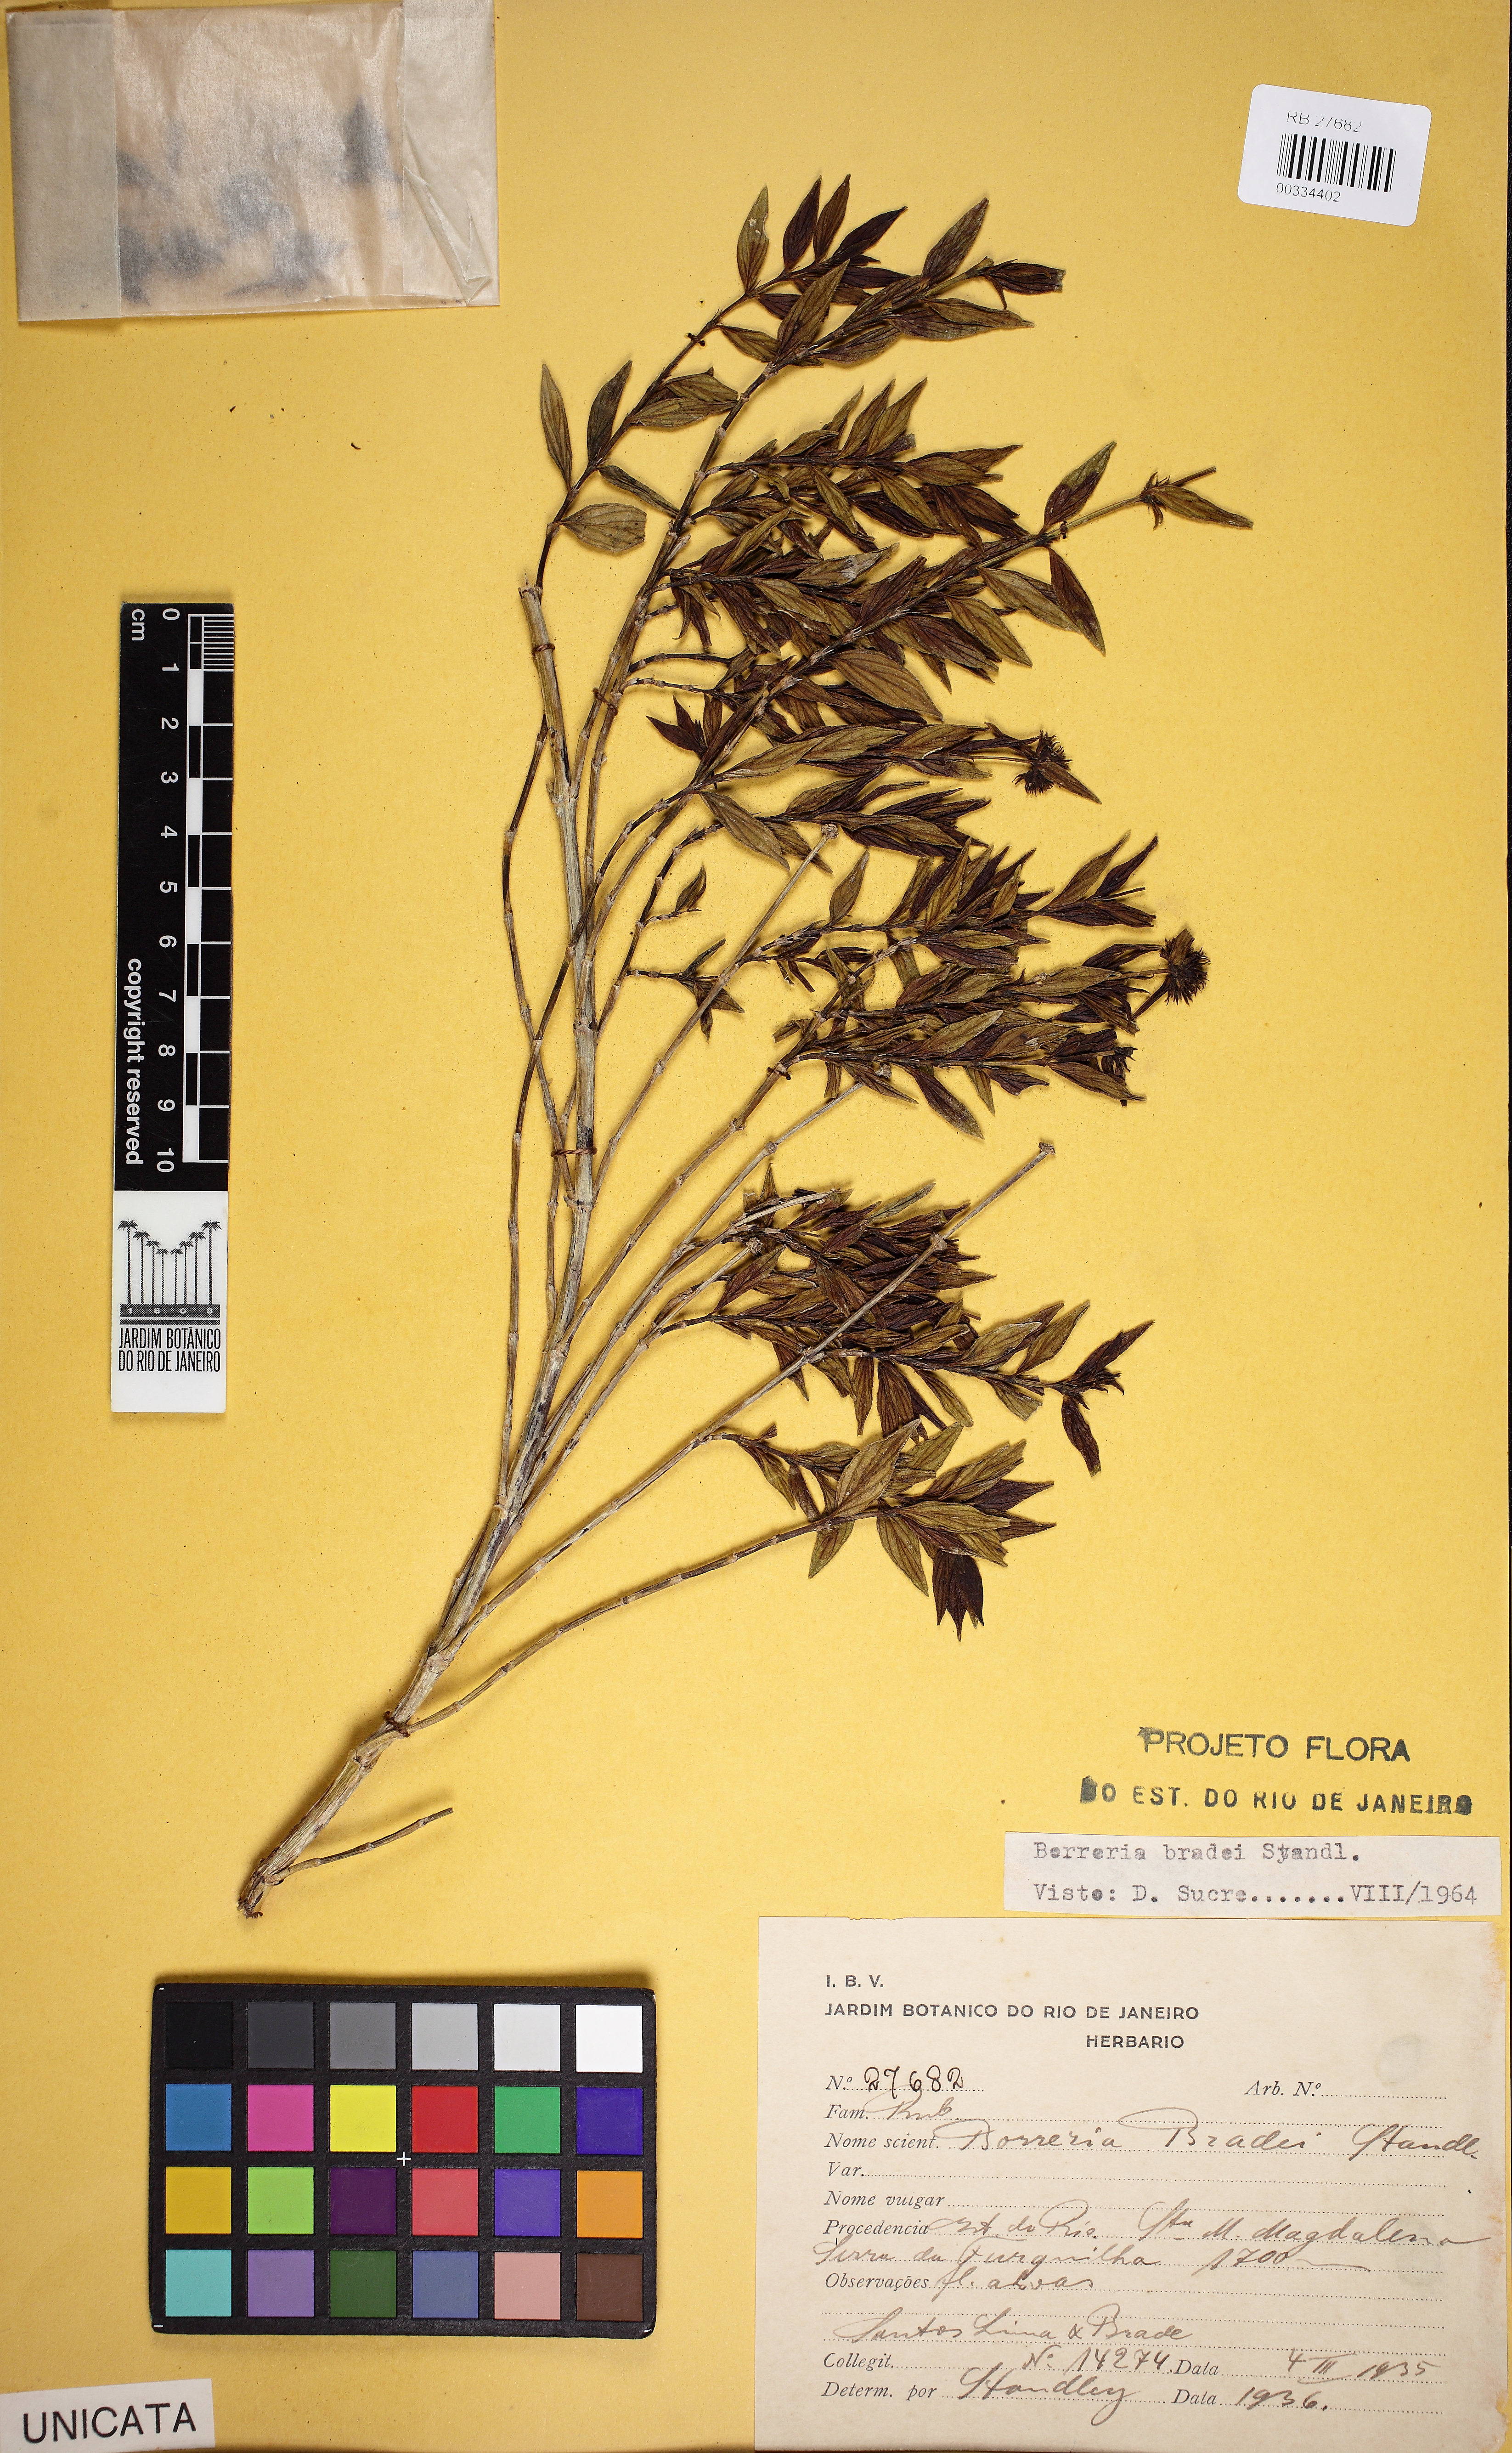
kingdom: Plantae
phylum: Tracheophyta
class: Magnoliopsida
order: Gentianales
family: Rubiaceae
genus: Spermacoce
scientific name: Spermacoce bradei
